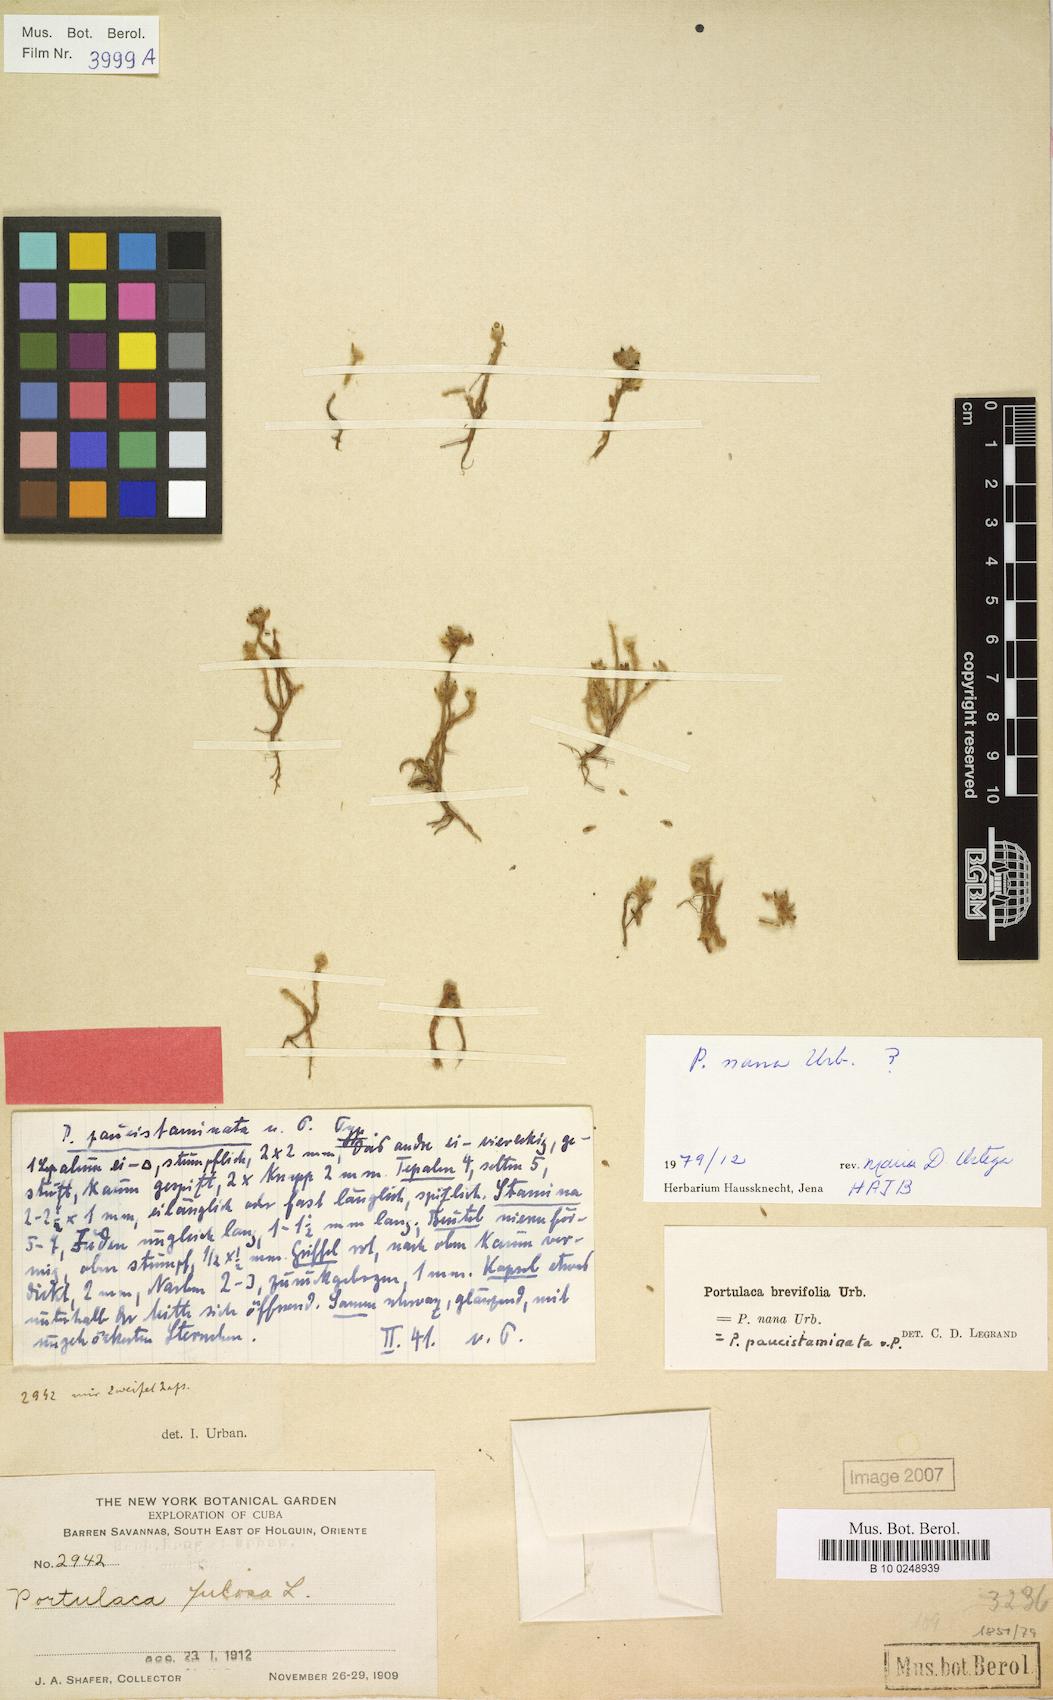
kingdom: Plantae
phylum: Tracheophyta
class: Magnoliopsida
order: Caryophyllales
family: Portulacaceae
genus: Portulaca
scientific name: Portulaca brevifolia
